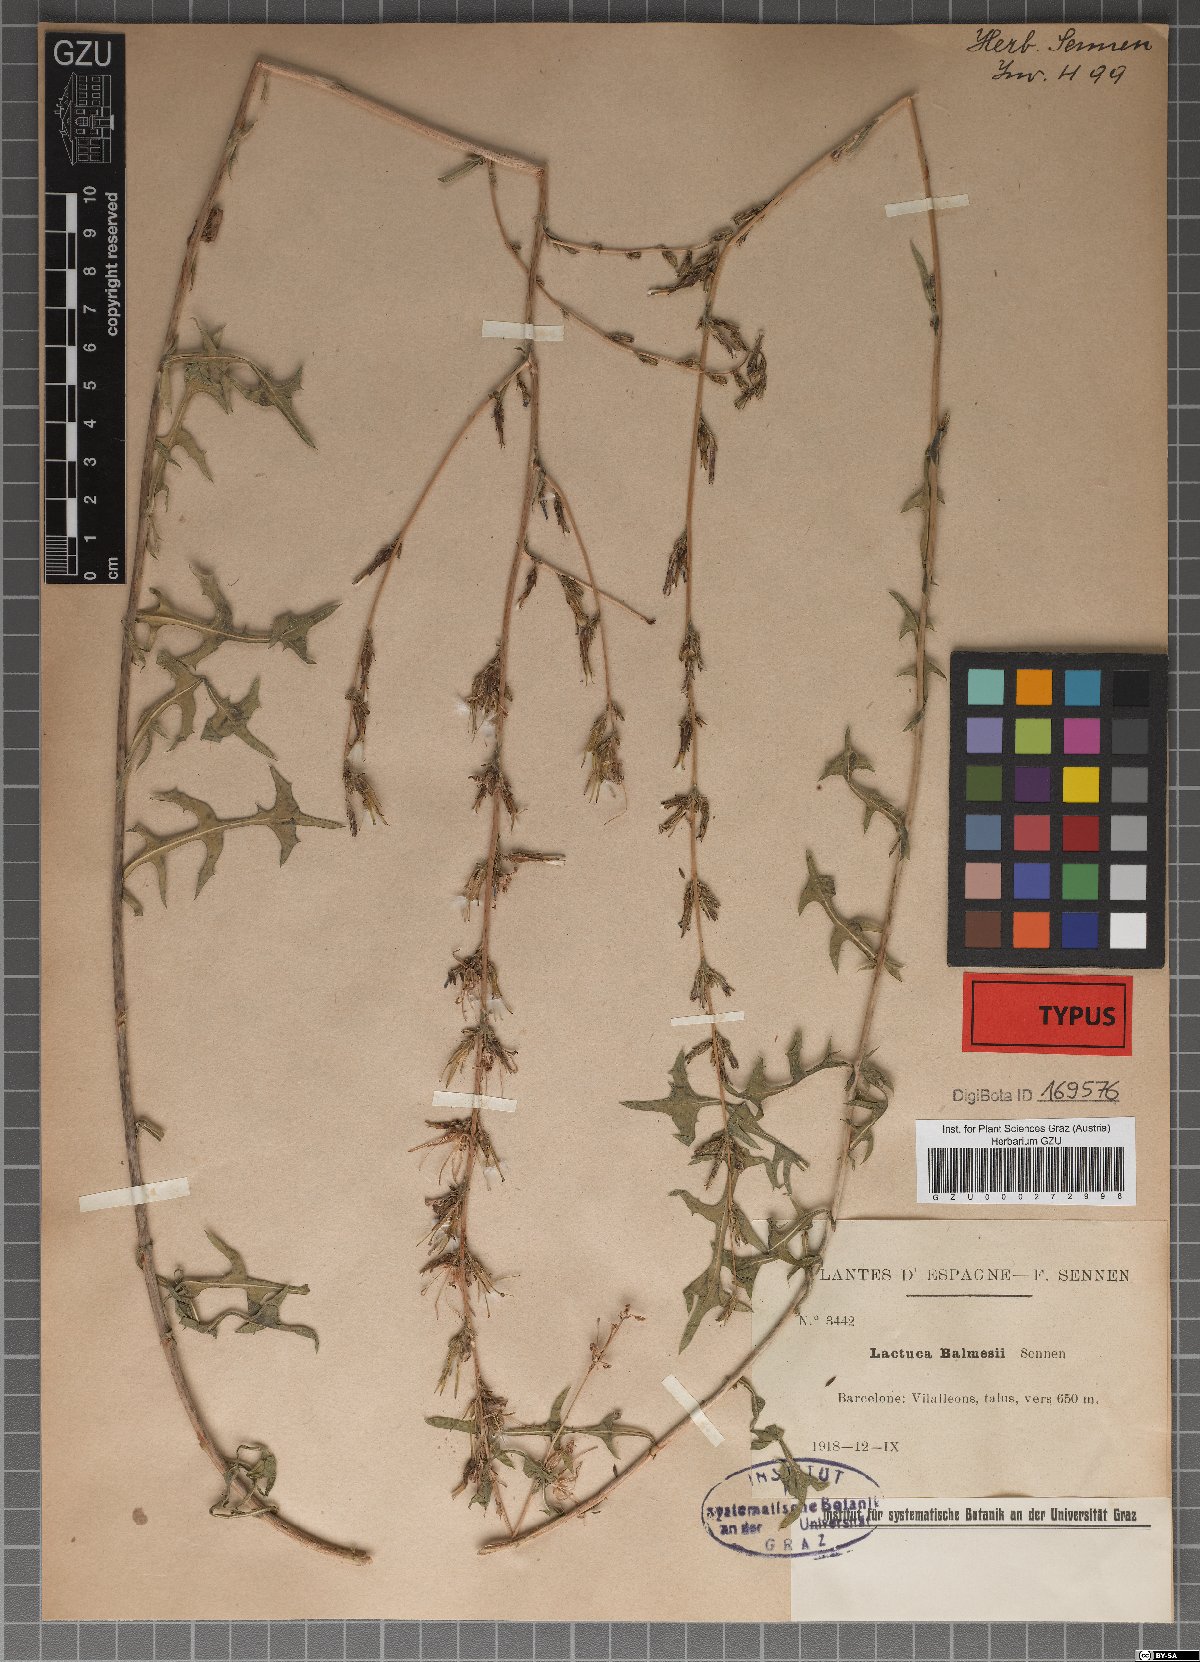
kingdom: Plantae
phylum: Tracheophyta
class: Magnoliopsida
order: Asterales
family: Asteraceae
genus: Lactuca
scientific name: Lactuca balmesi
